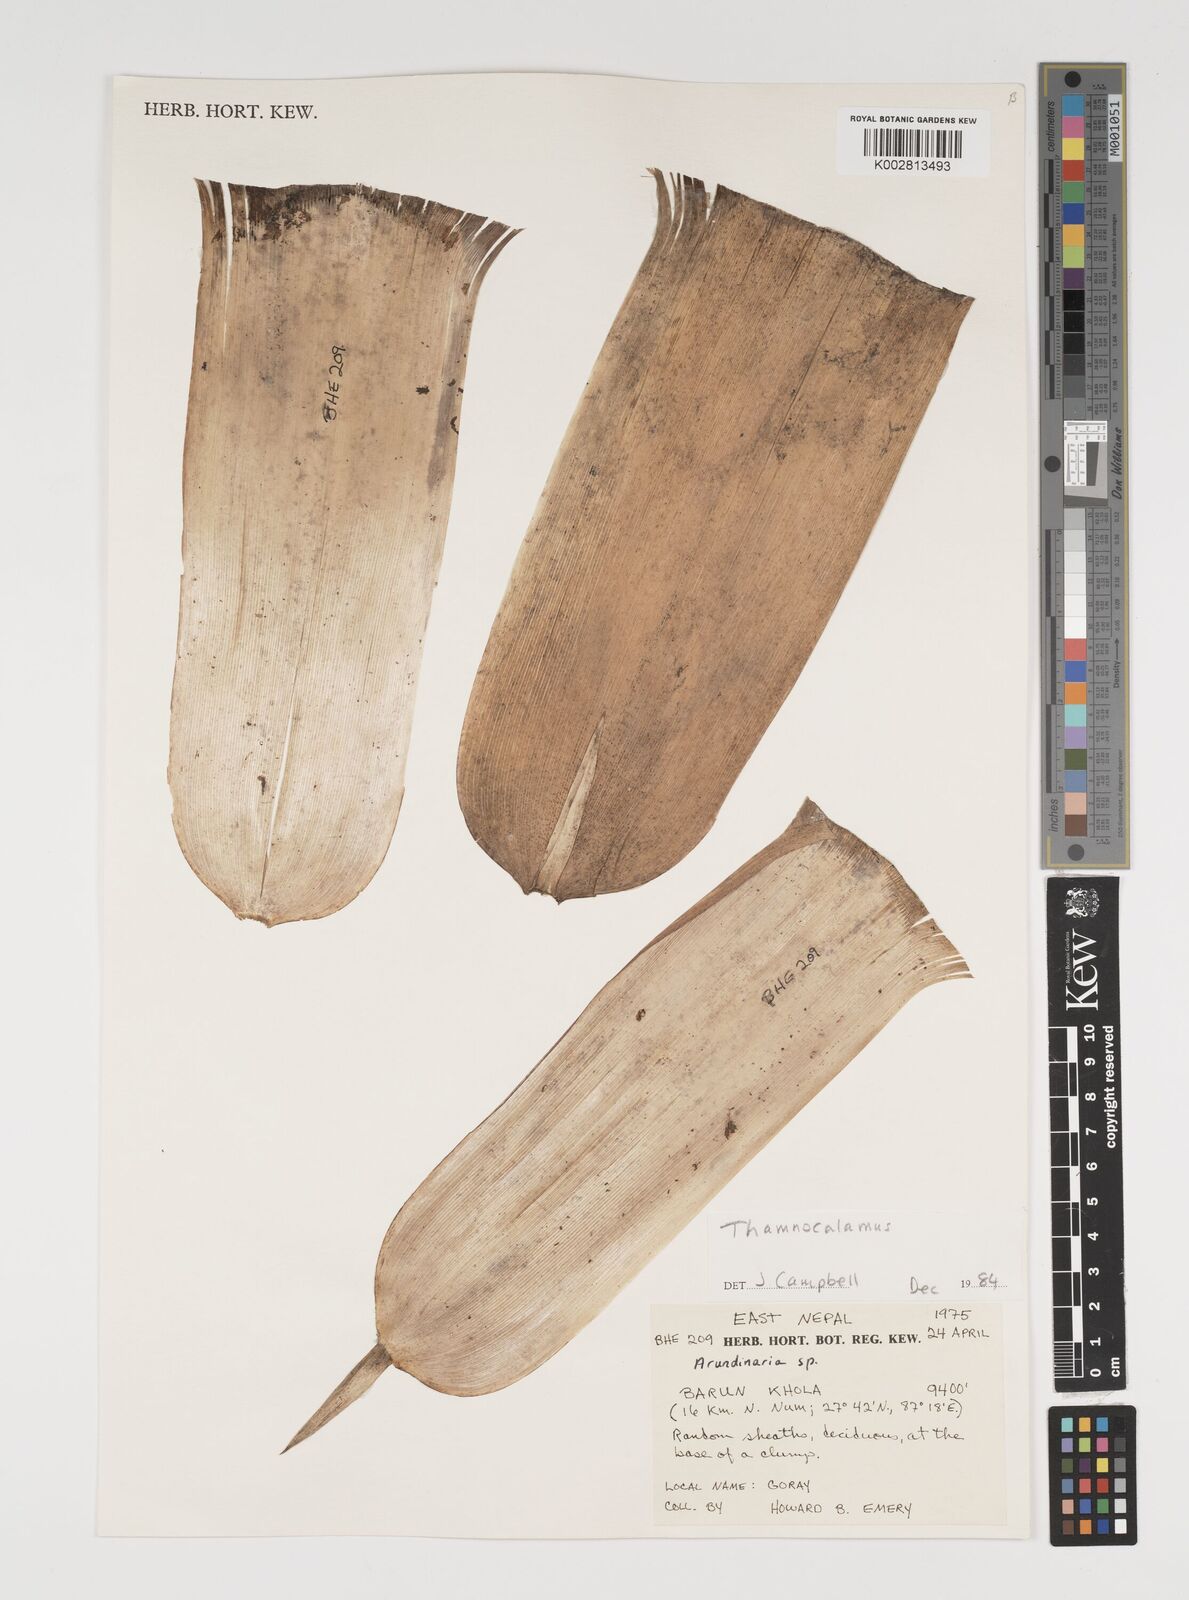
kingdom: Plantae
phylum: Tracheophyta
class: Liliopsida
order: Poales
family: Poaceae
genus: Thamnocalamus
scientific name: Thamnocalamus spathiflorus
